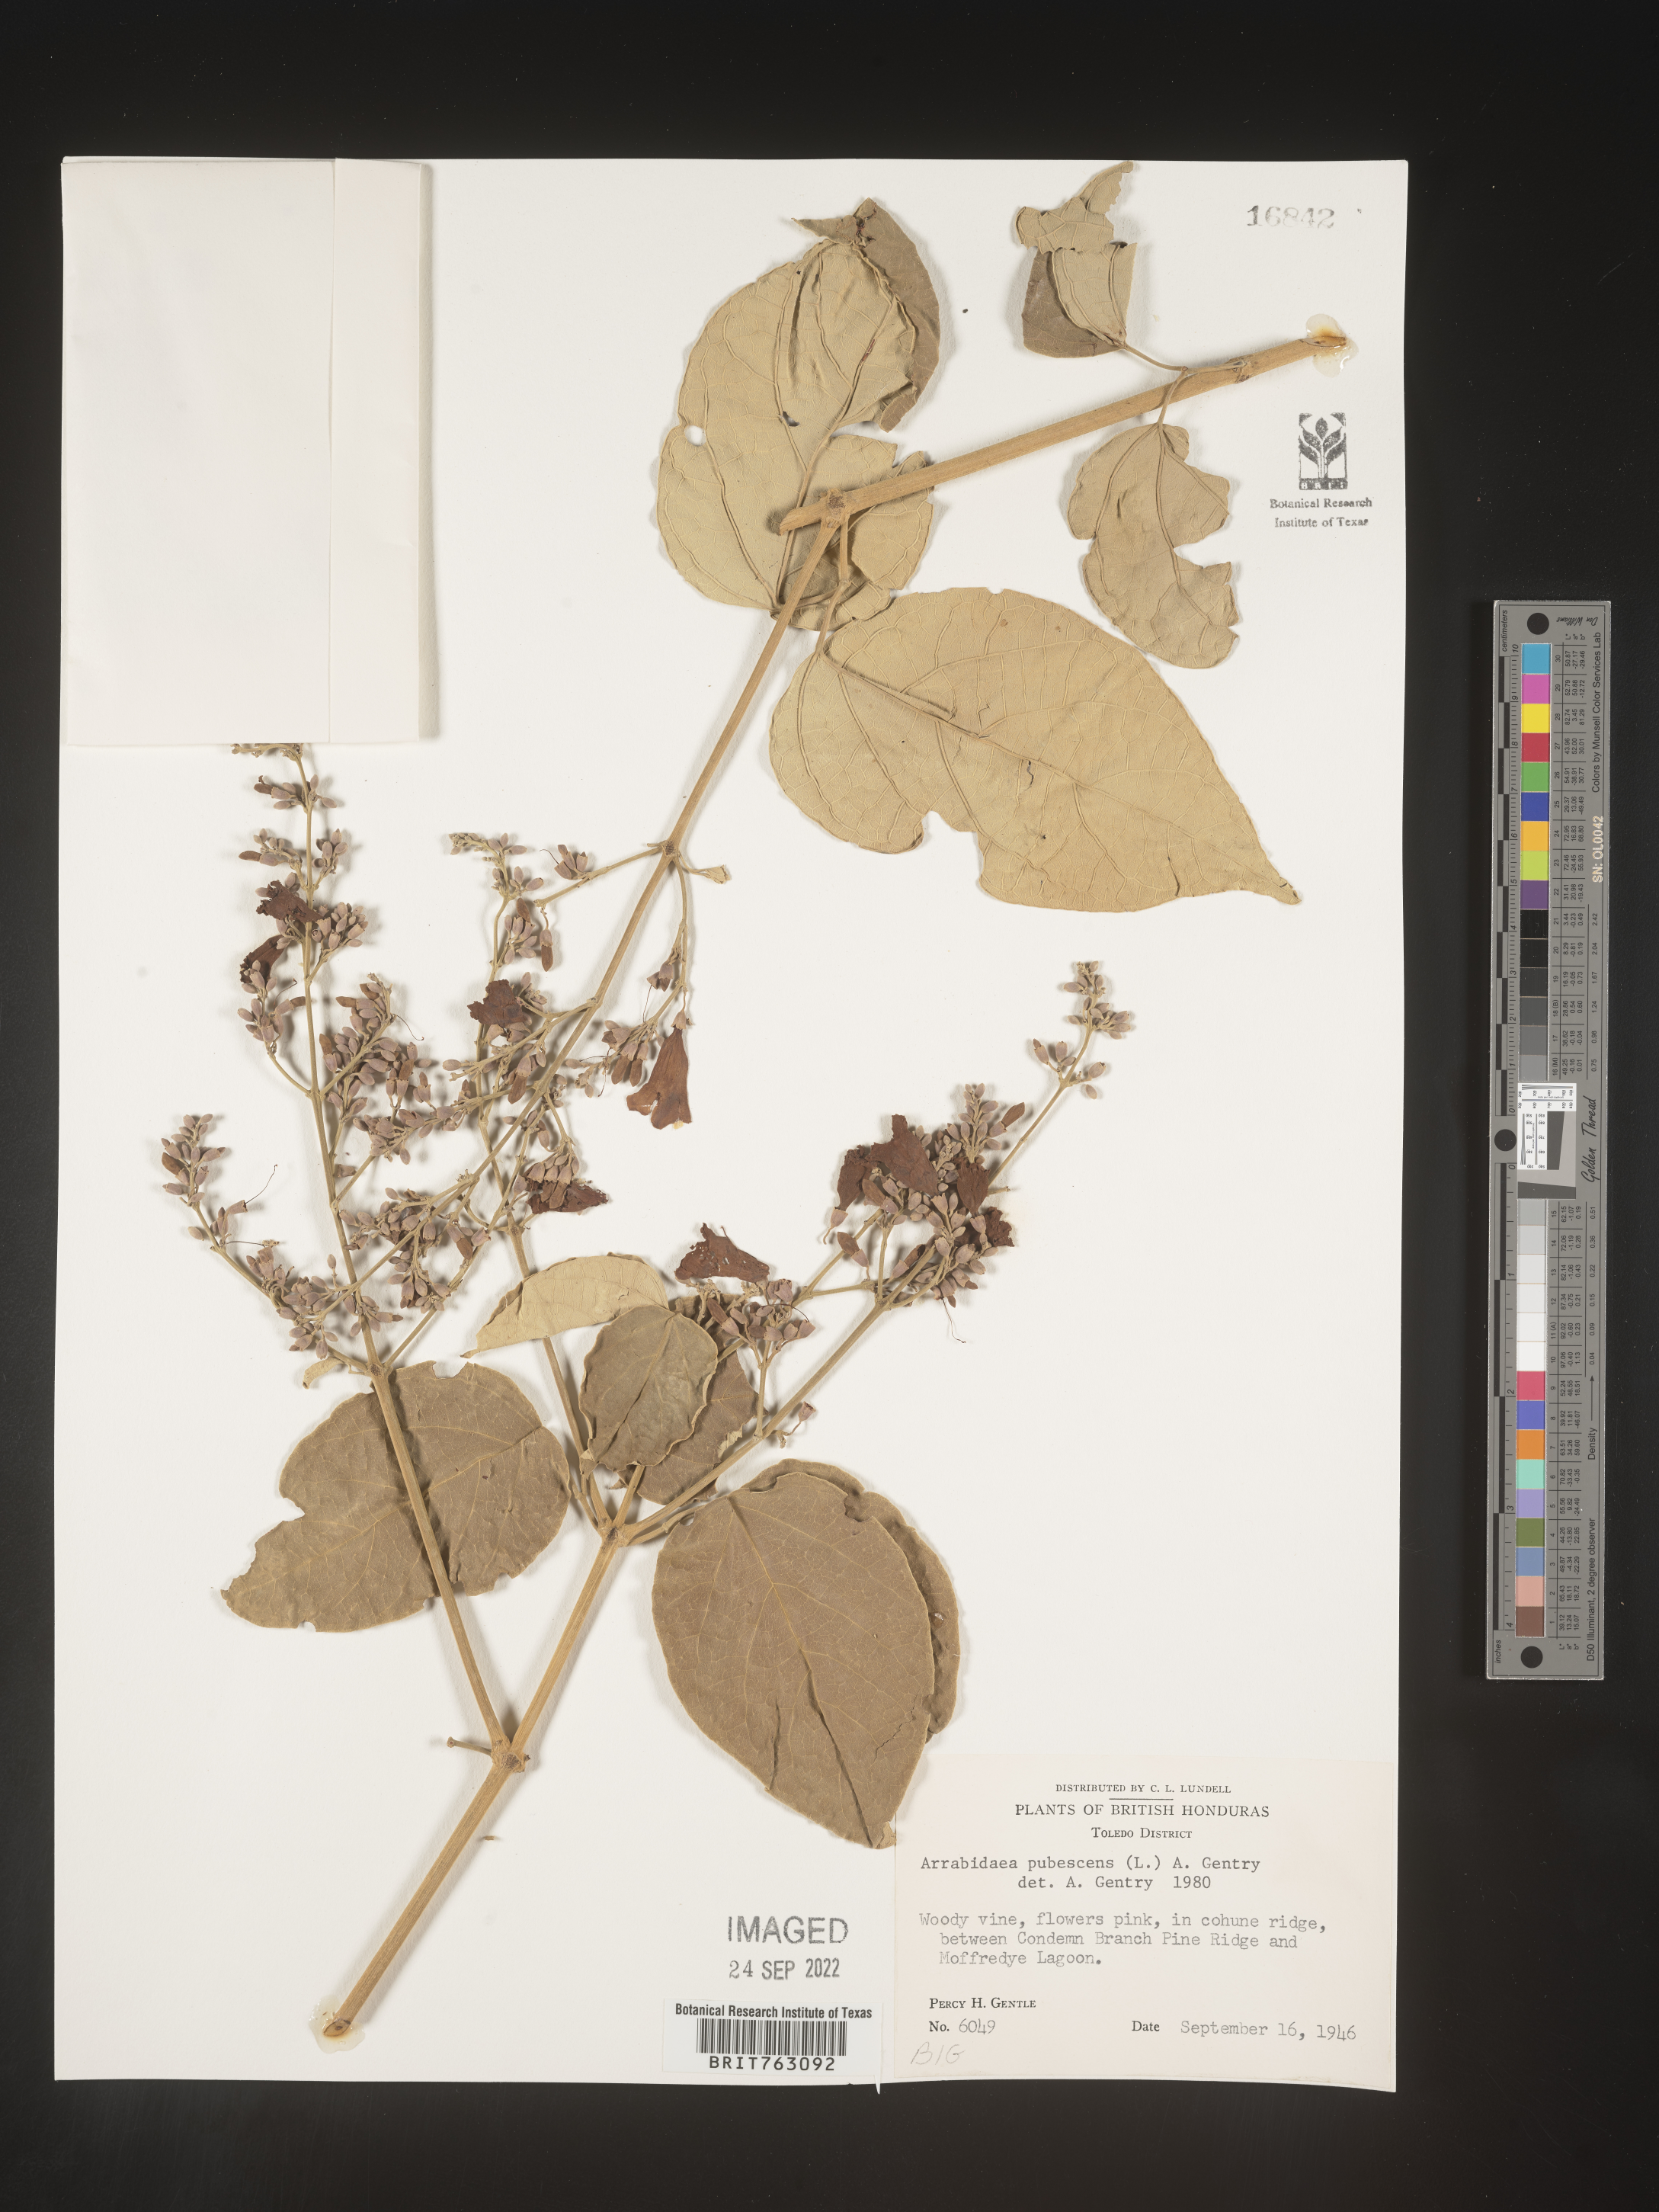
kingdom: Plantae
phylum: Tracheophyta
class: Magnoliopsida
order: Rosales
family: Rhamnaceae
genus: Arrabidaea
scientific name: Arrabidaea
